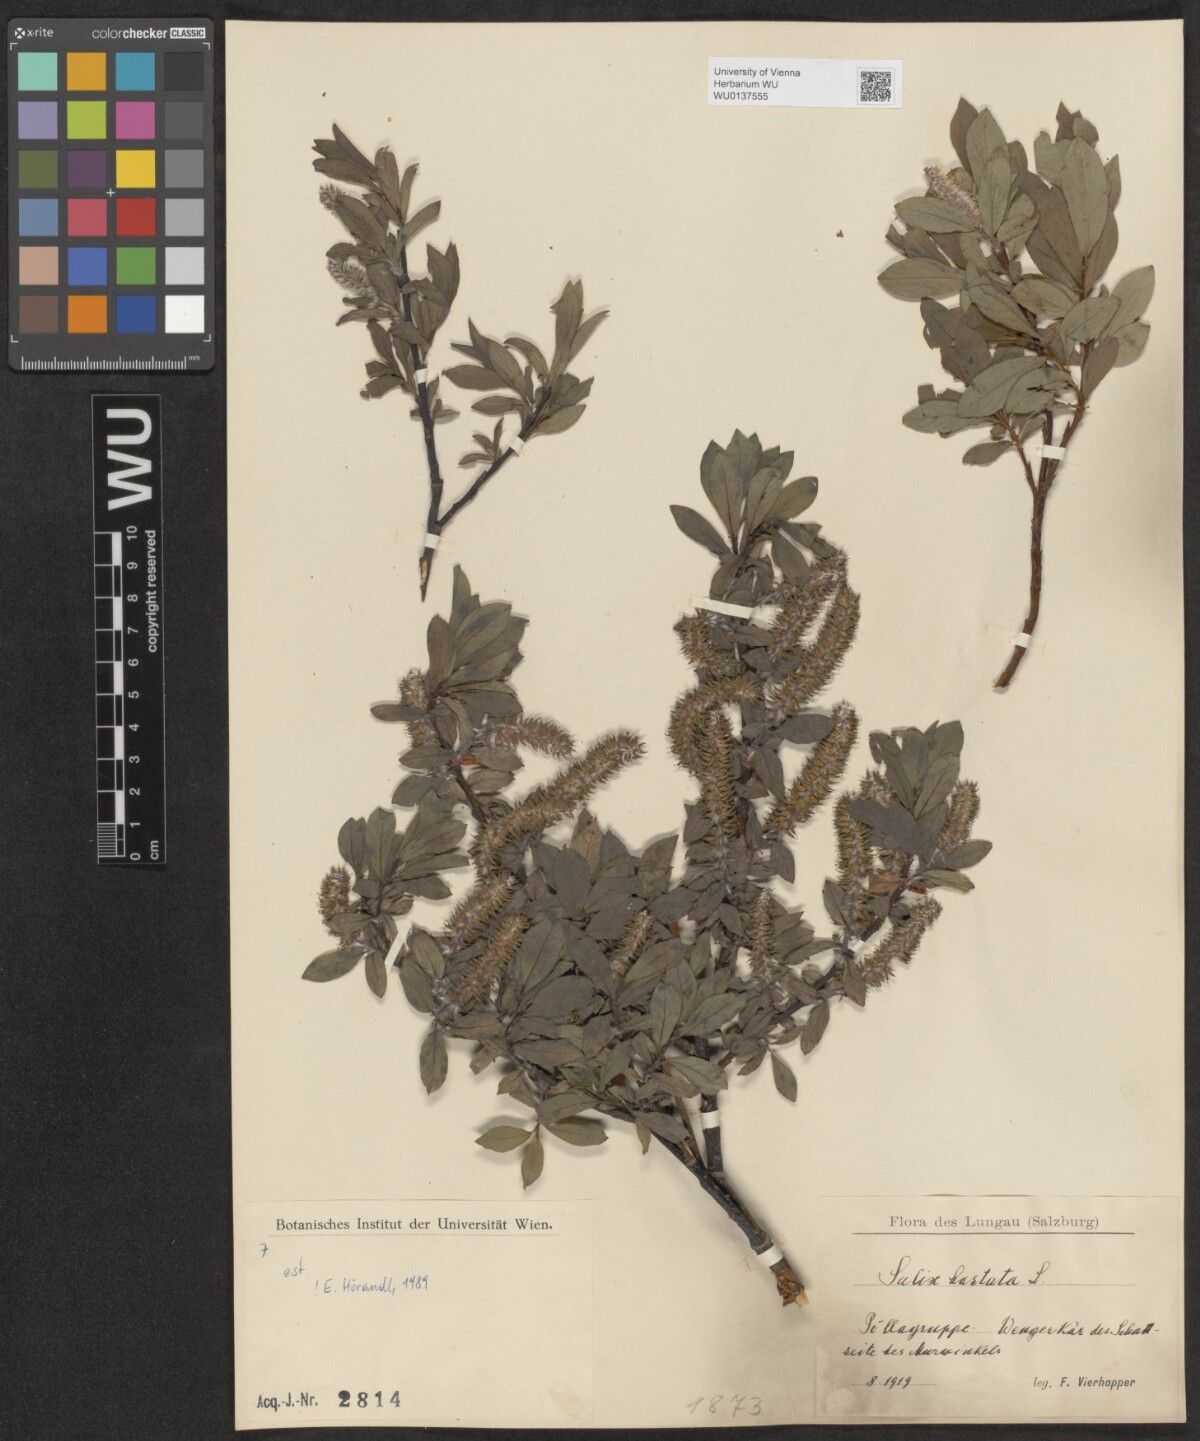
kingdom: Plantae
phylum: Tracheophyta
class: Magnoliopsida
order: Malpighiales
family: Salicaceae
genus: Salix
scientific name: Salix hastata
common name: Halberd willow
